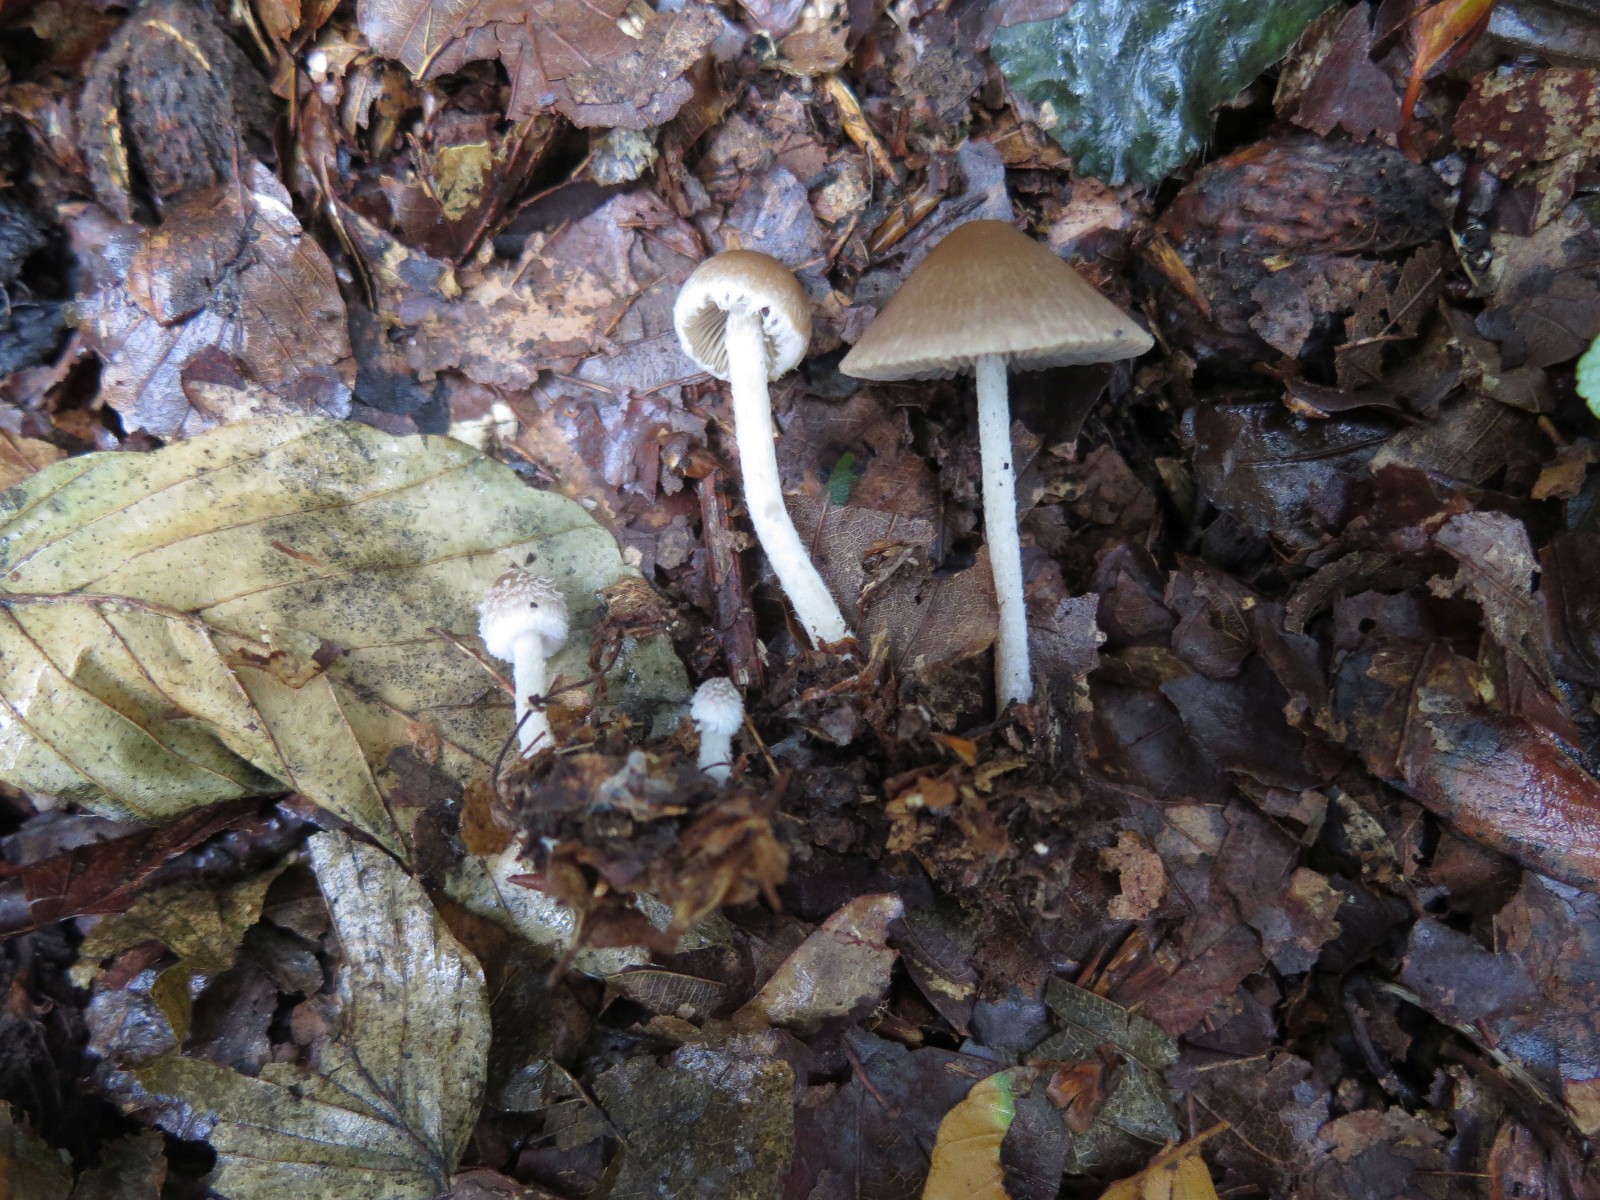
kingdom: Fungi
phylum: Basidiomycota
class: Agaricomycetes
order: Agaricales
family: Psathyrellaceae
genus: Psathyrella
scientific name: Psathyrella
